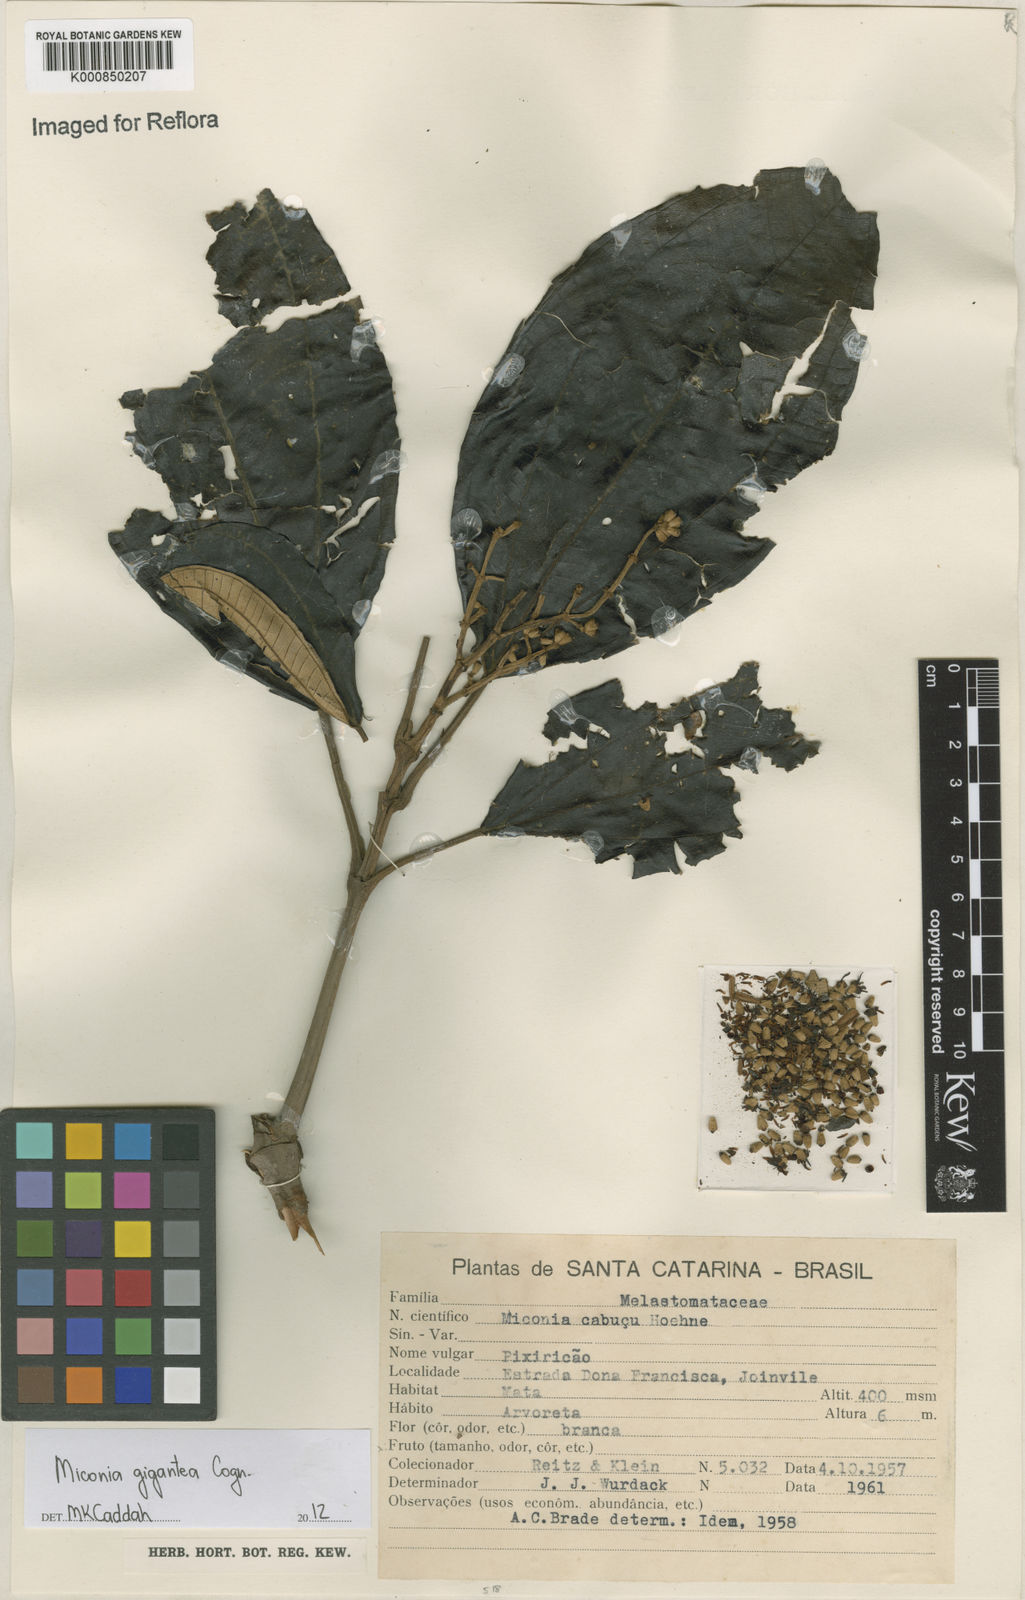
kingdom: Plantae
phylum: Tracheophyta
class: Magnoliopsida
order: Myrtales
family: Melastomataceae
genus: Miconia
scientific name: Miconia formosa
